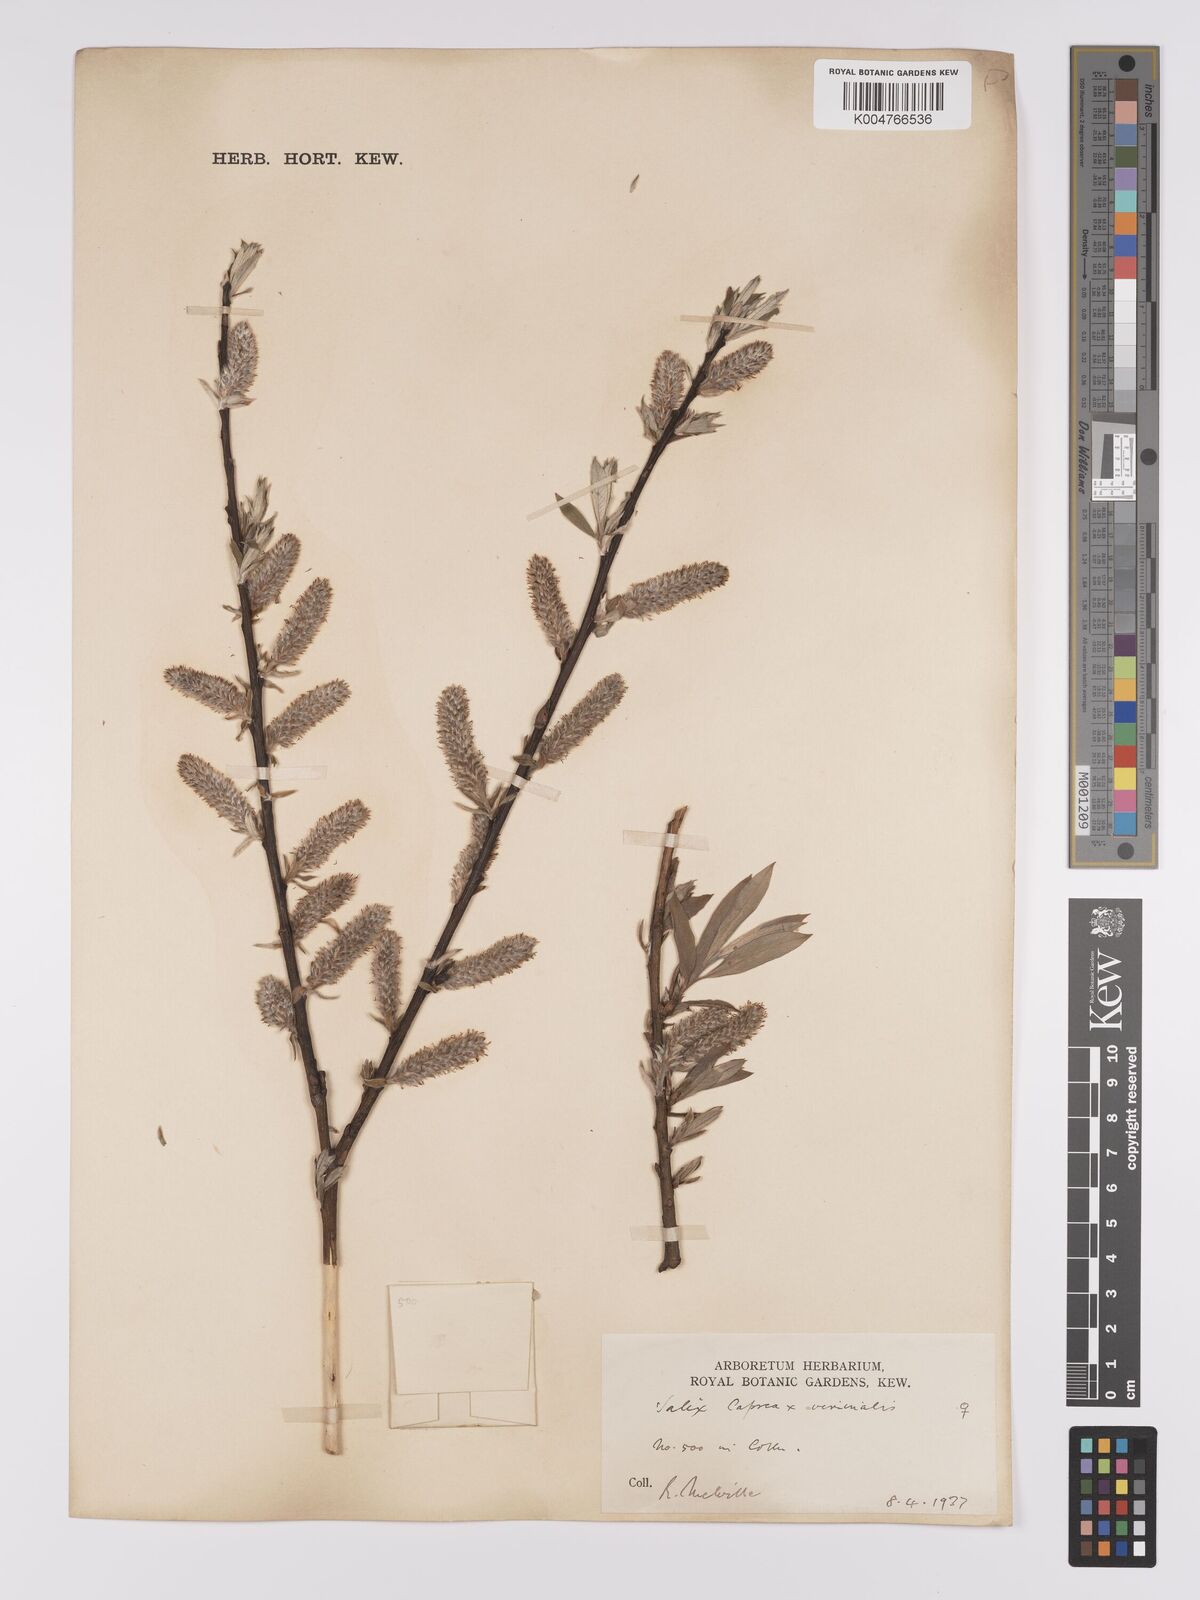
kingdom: Plantae
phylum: Tracheophyta
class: Magnoliopsida
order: Malpighiales
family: Salicaceae
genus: Salix
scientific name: Salix caprea
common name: Goat willow
